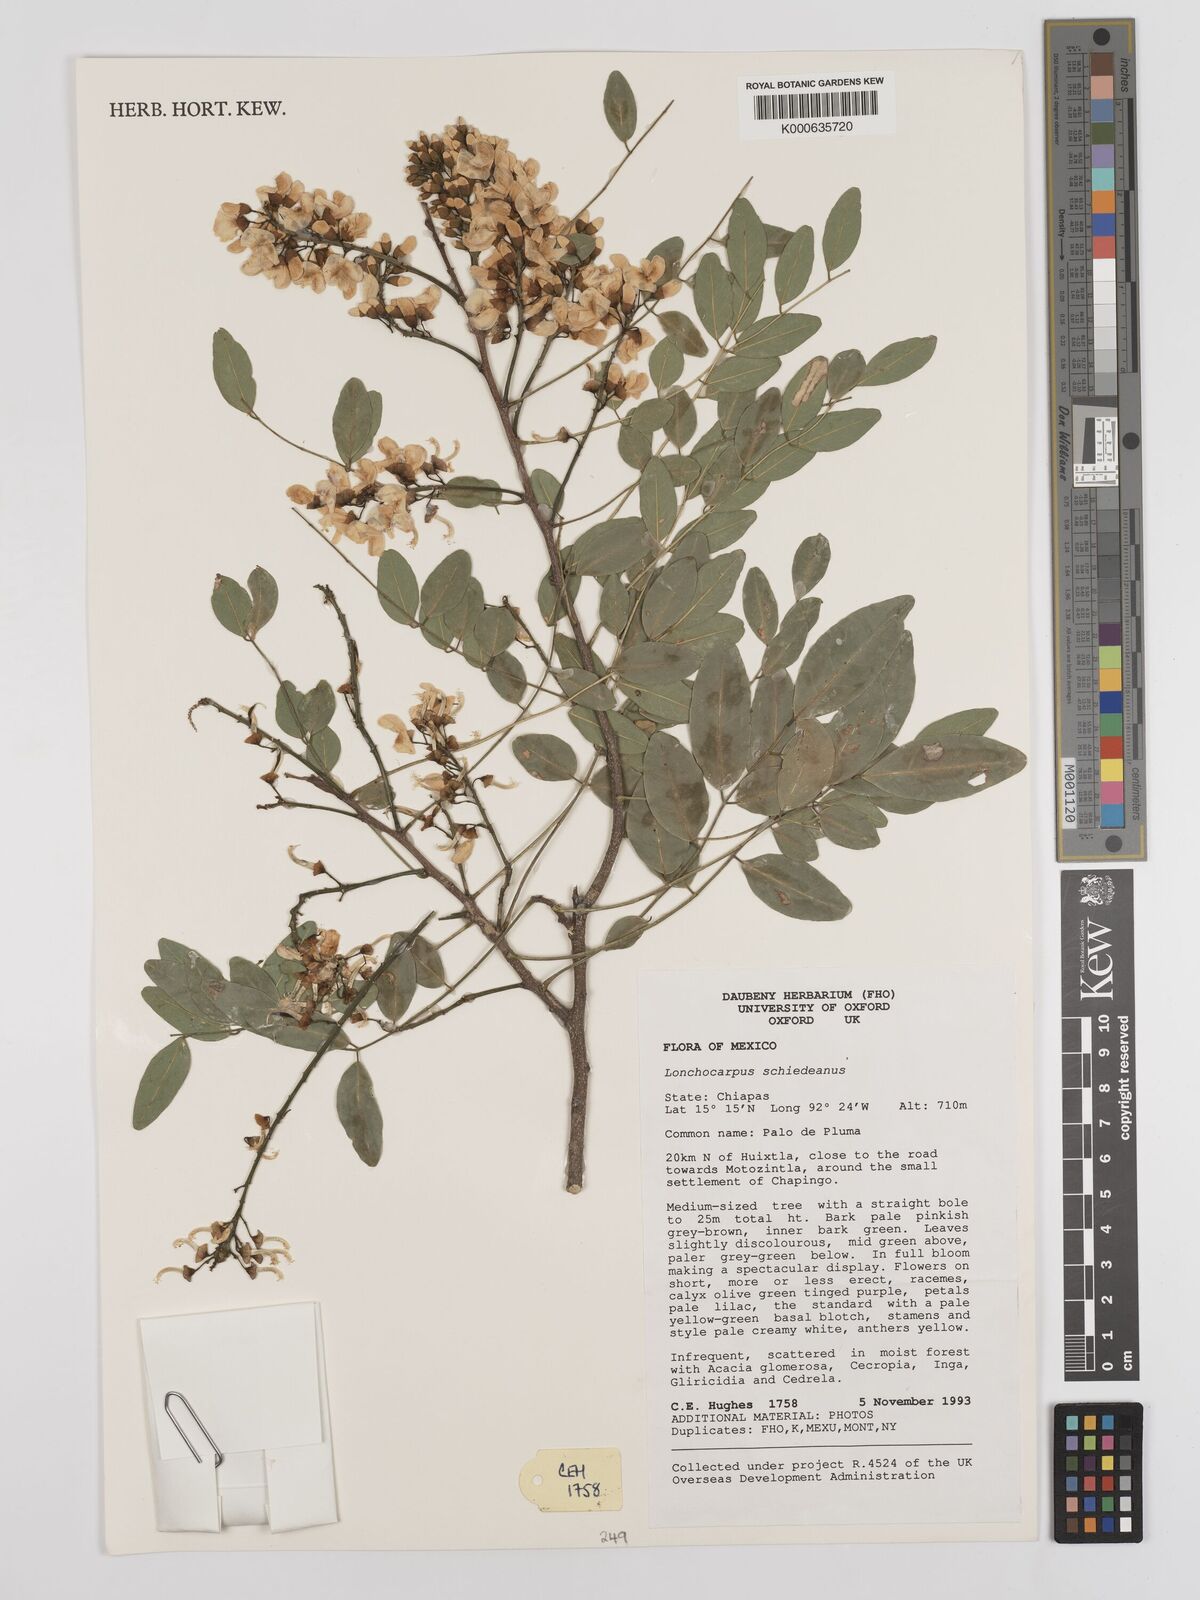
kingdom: Plantae
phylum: Tracheophyta
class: Magnoliopsida
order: Fabales
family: Fabaceae
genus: Lonchocarpus
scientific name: Lonchocarpus schiedeanus
